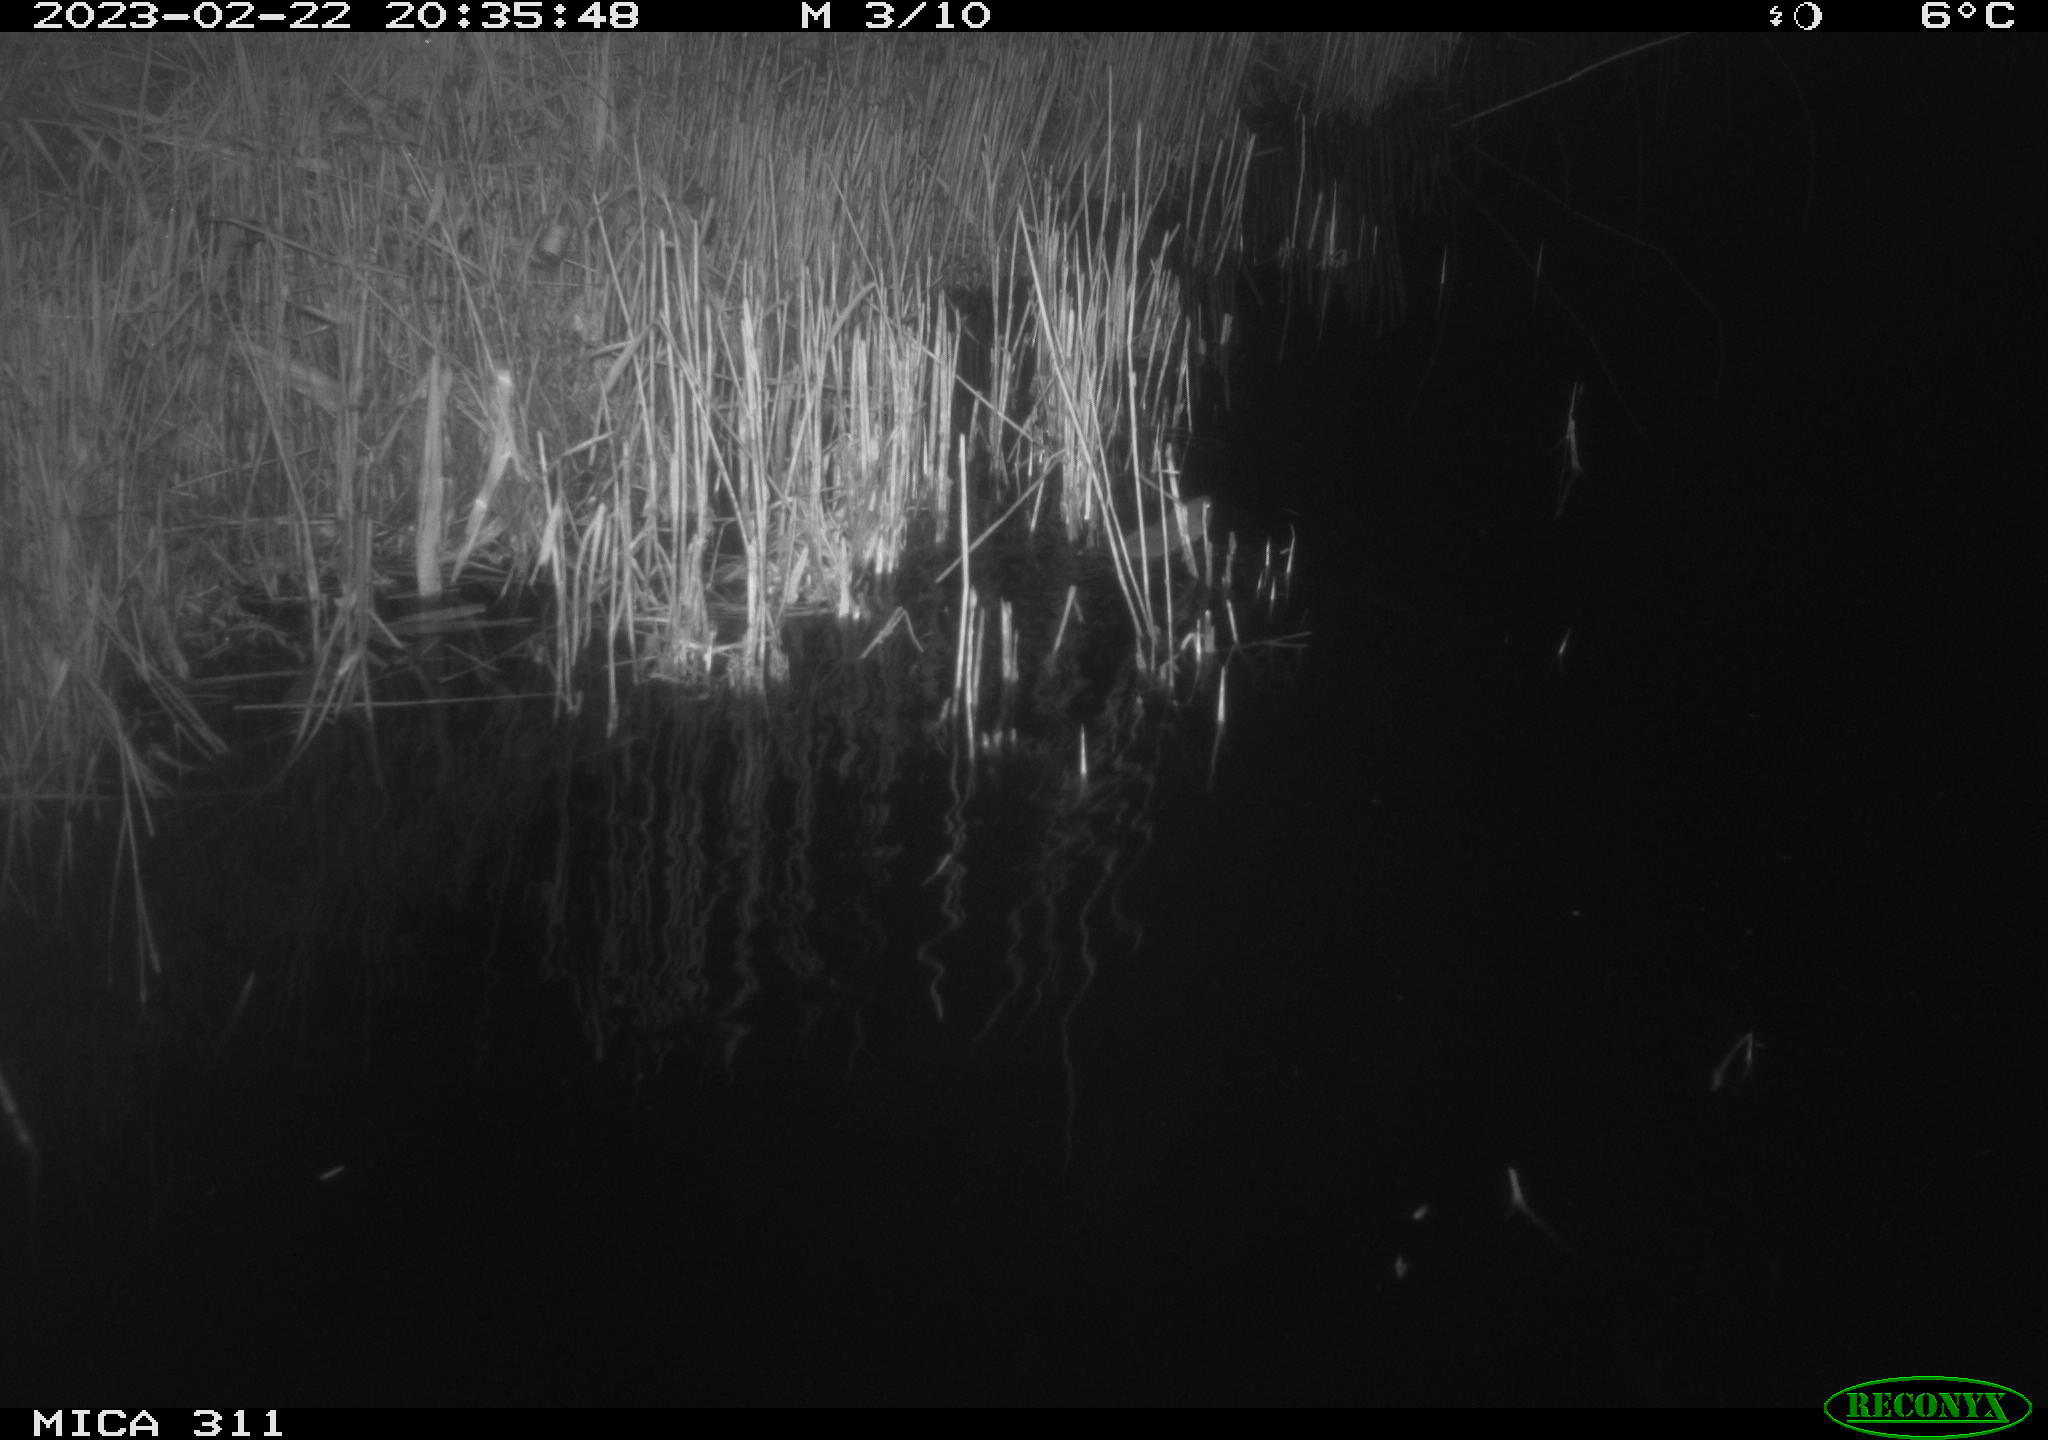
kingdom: Animalia
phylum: Chordata
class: Mammalia
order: Rodentia
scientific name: Rodentia
